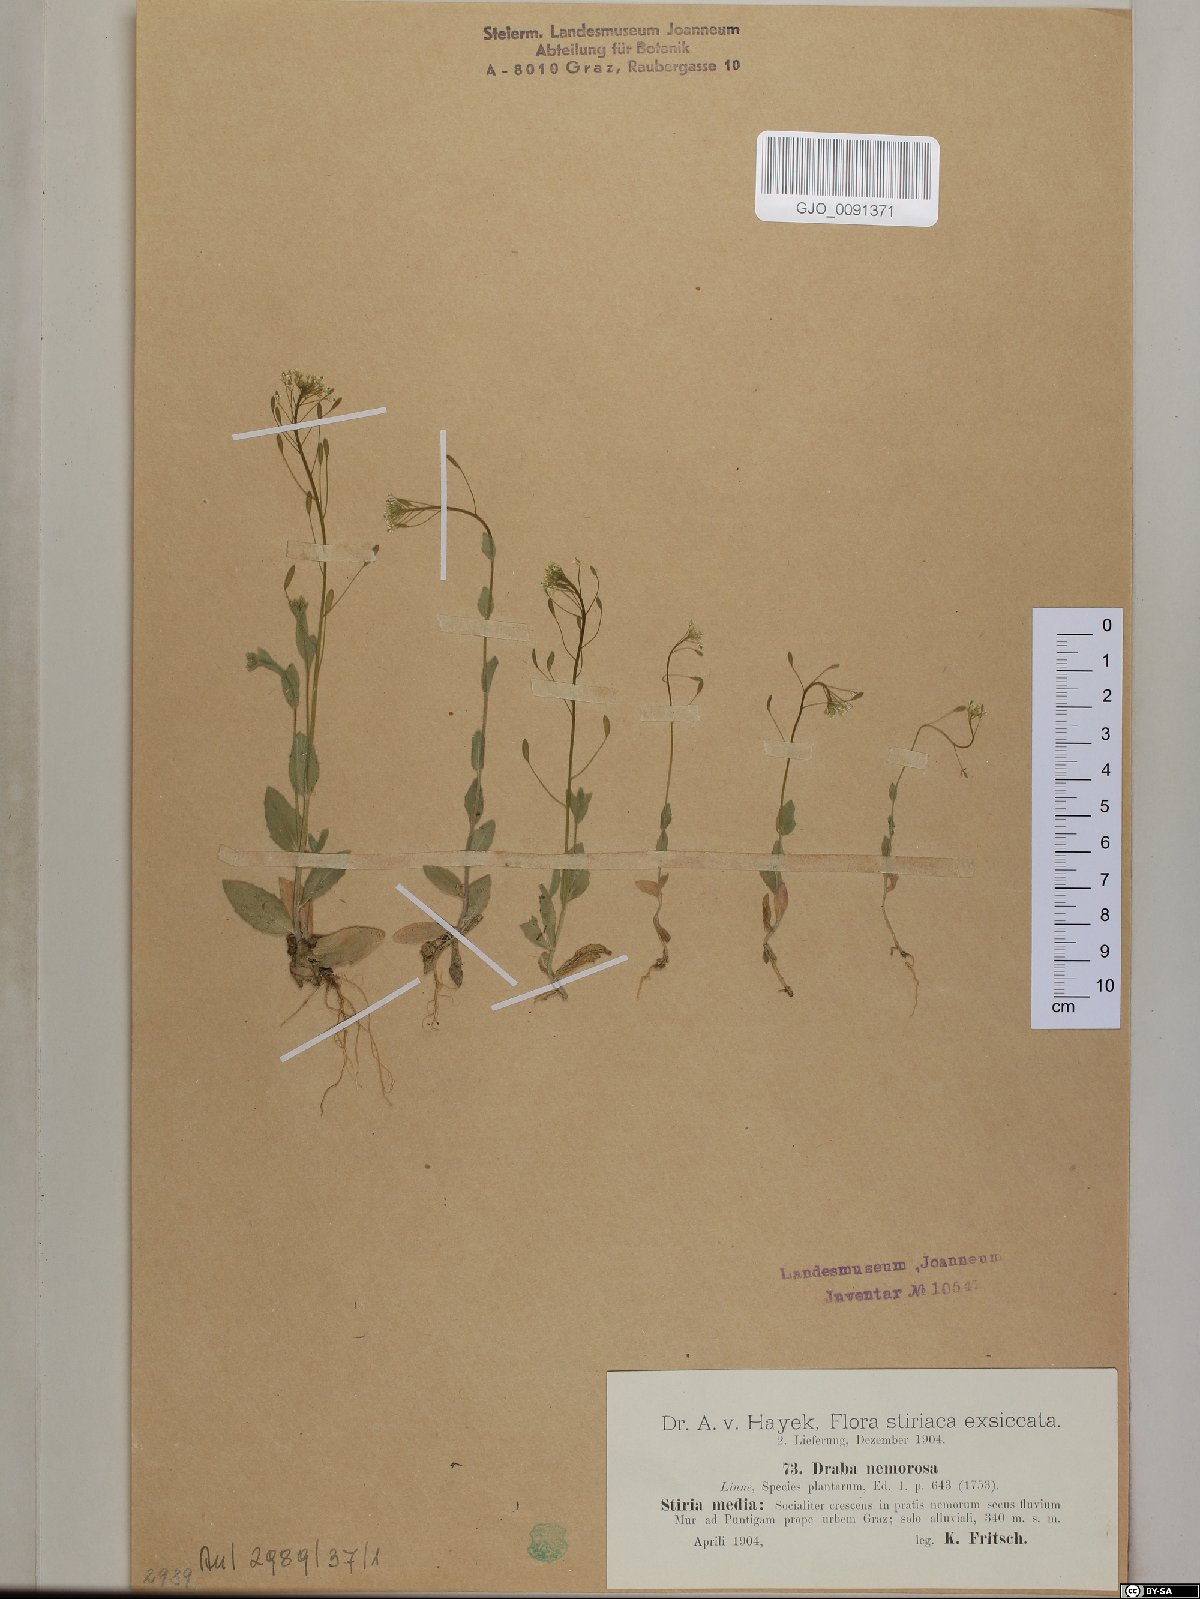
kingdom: Plantae
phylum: Tracheophyta
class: Magnoliopsida
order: Brassicales
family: Brassicaceae
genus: Draba
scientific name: Draba nemorosa
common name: Wood whitlow-grass
